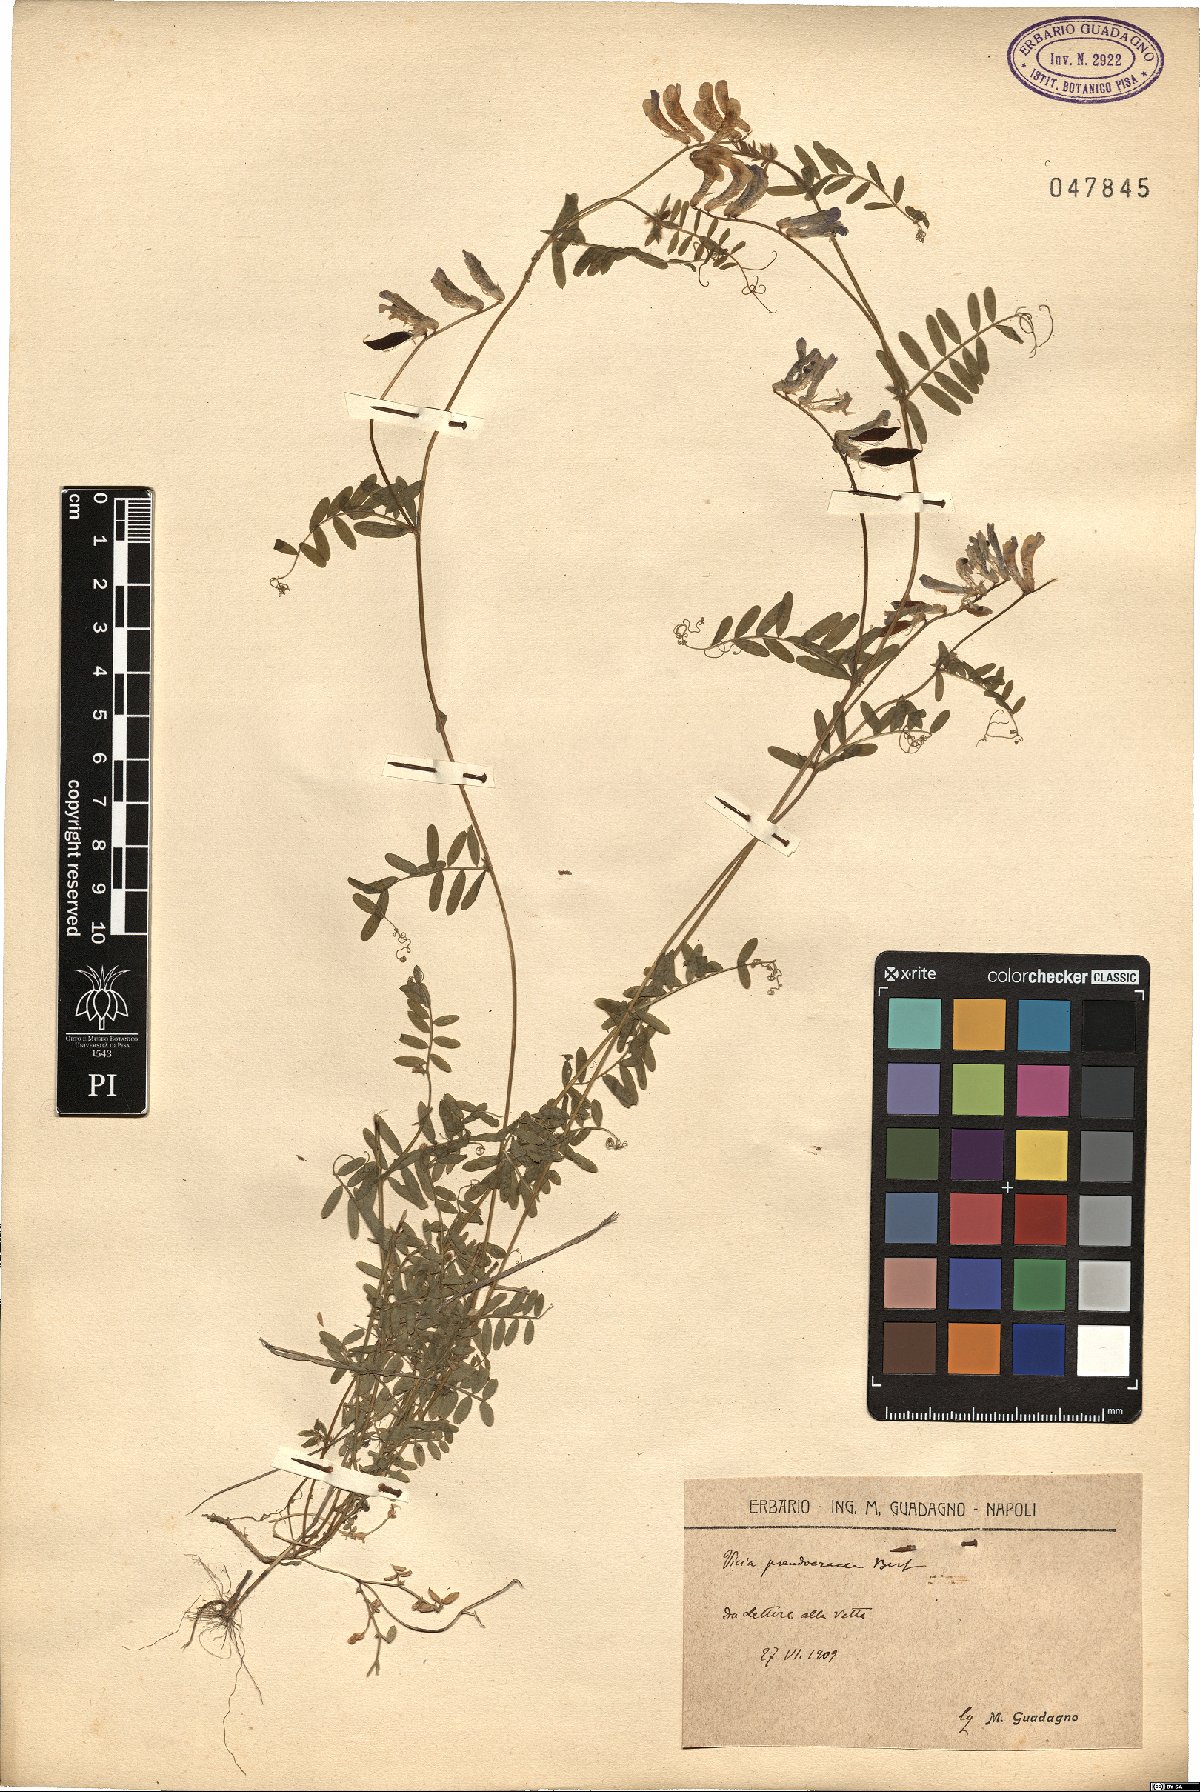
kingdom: Plantae
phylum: Tracheophyta
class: Magnoliopsida
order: Fabales
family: Fabaceae
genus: Vicia
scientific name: Vicia villosa
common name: Fodder vetch
